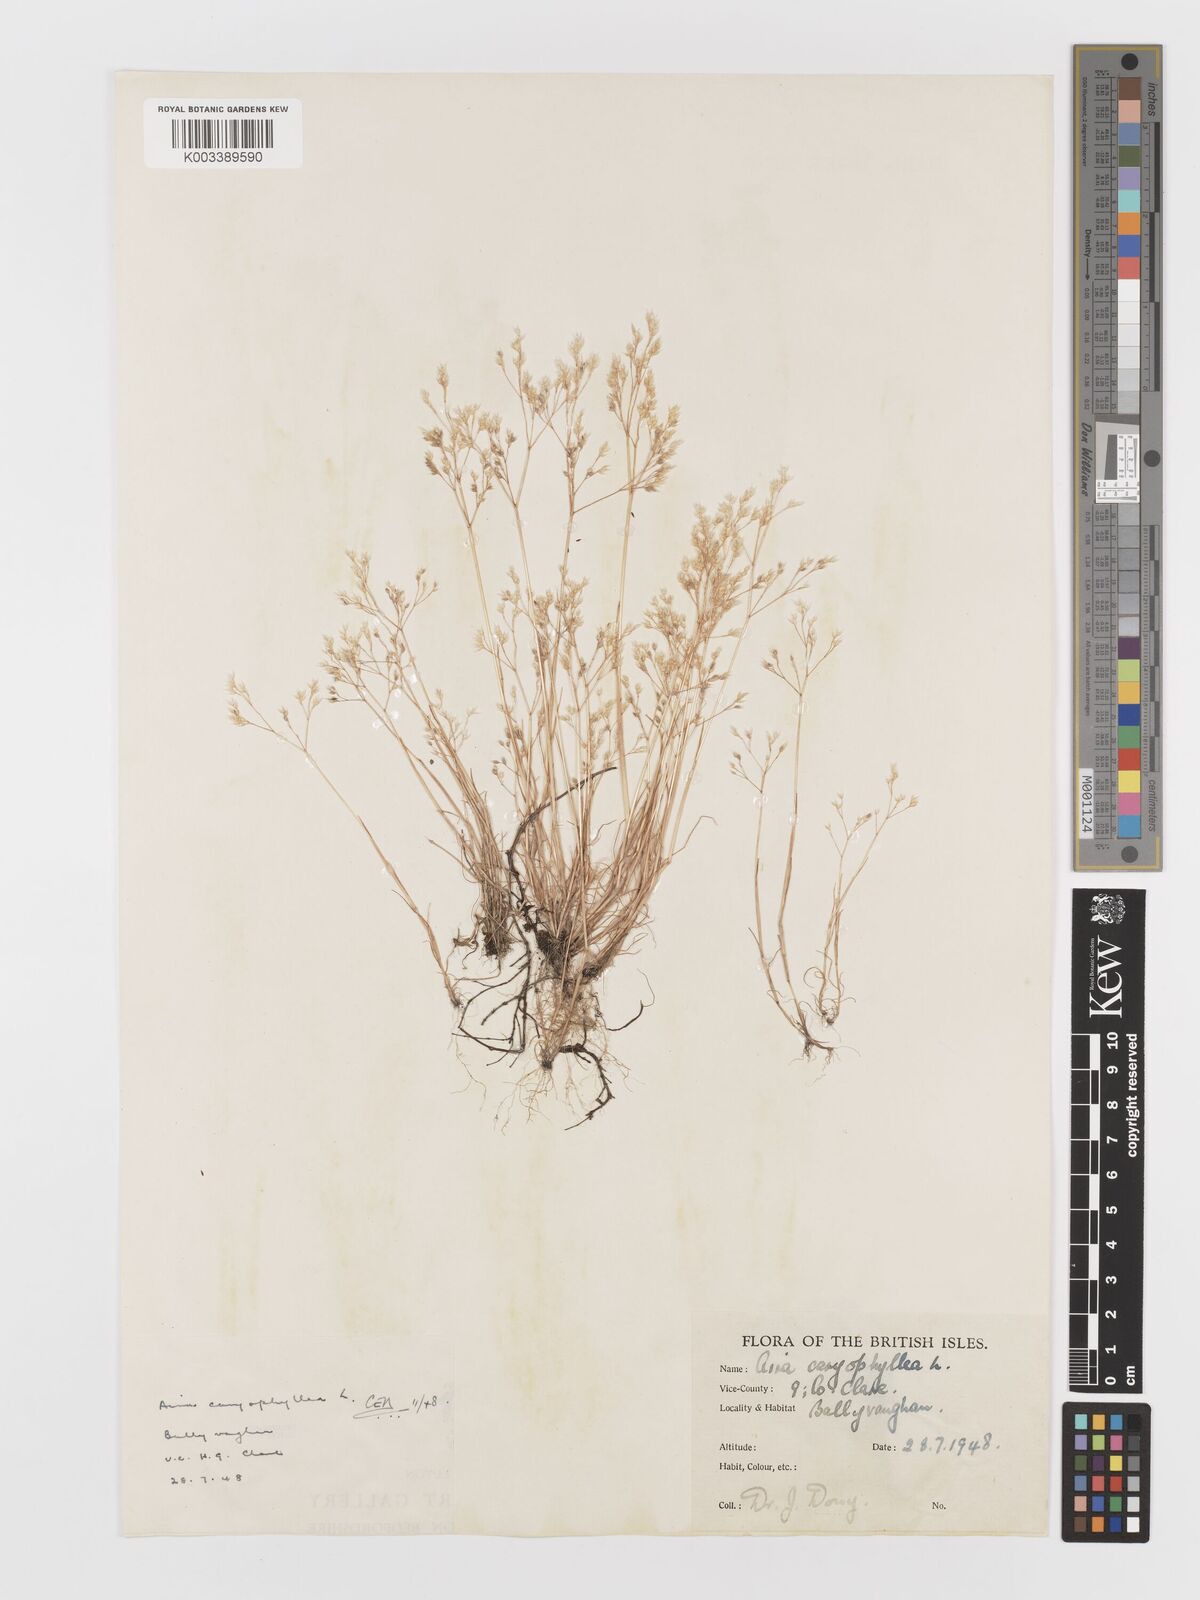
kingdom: Plantae
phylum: Tracheophyta
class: Liliopsida
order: Poales
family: Poaceae
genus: Aira
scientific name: Aira caryophyllea
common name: Silver hairgrass
